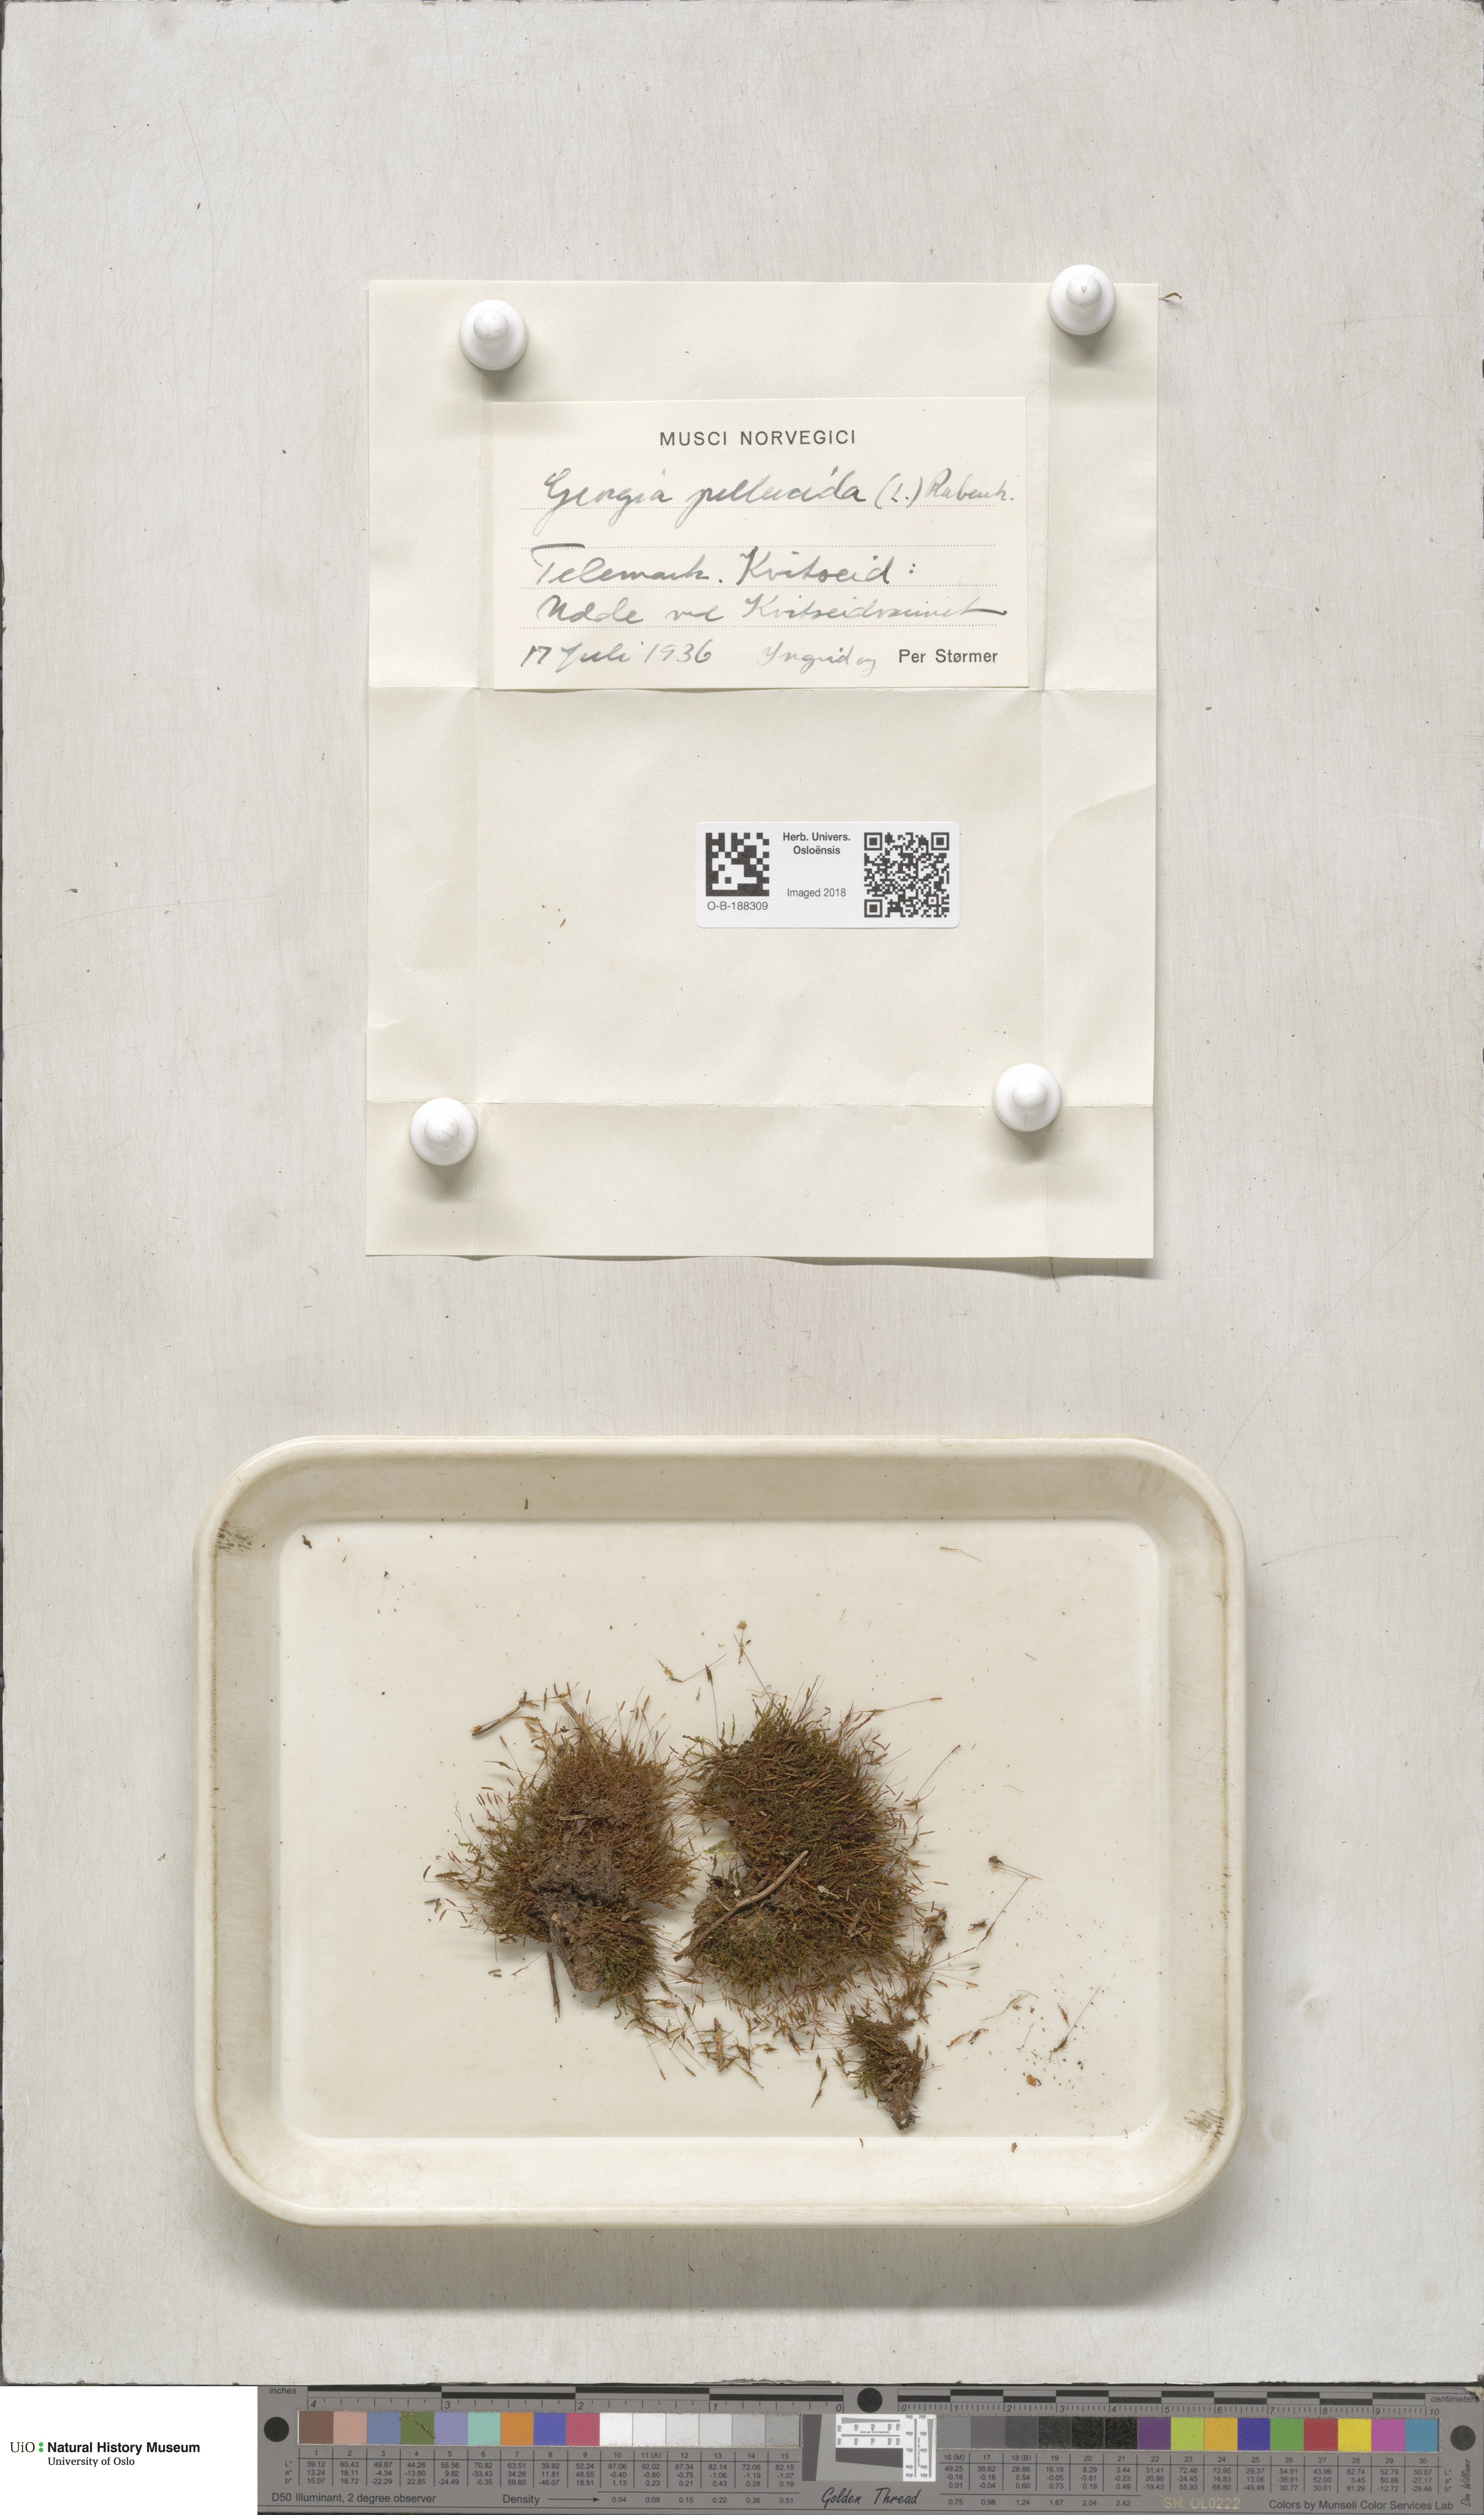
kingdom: Plantae
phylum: Bryophyta
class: Polytrichopsida
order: Tetraphidales
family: Tetraphidaceae
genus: Tetraphis
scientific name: Tetraphis pellucida
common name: Common four-toothed moss
